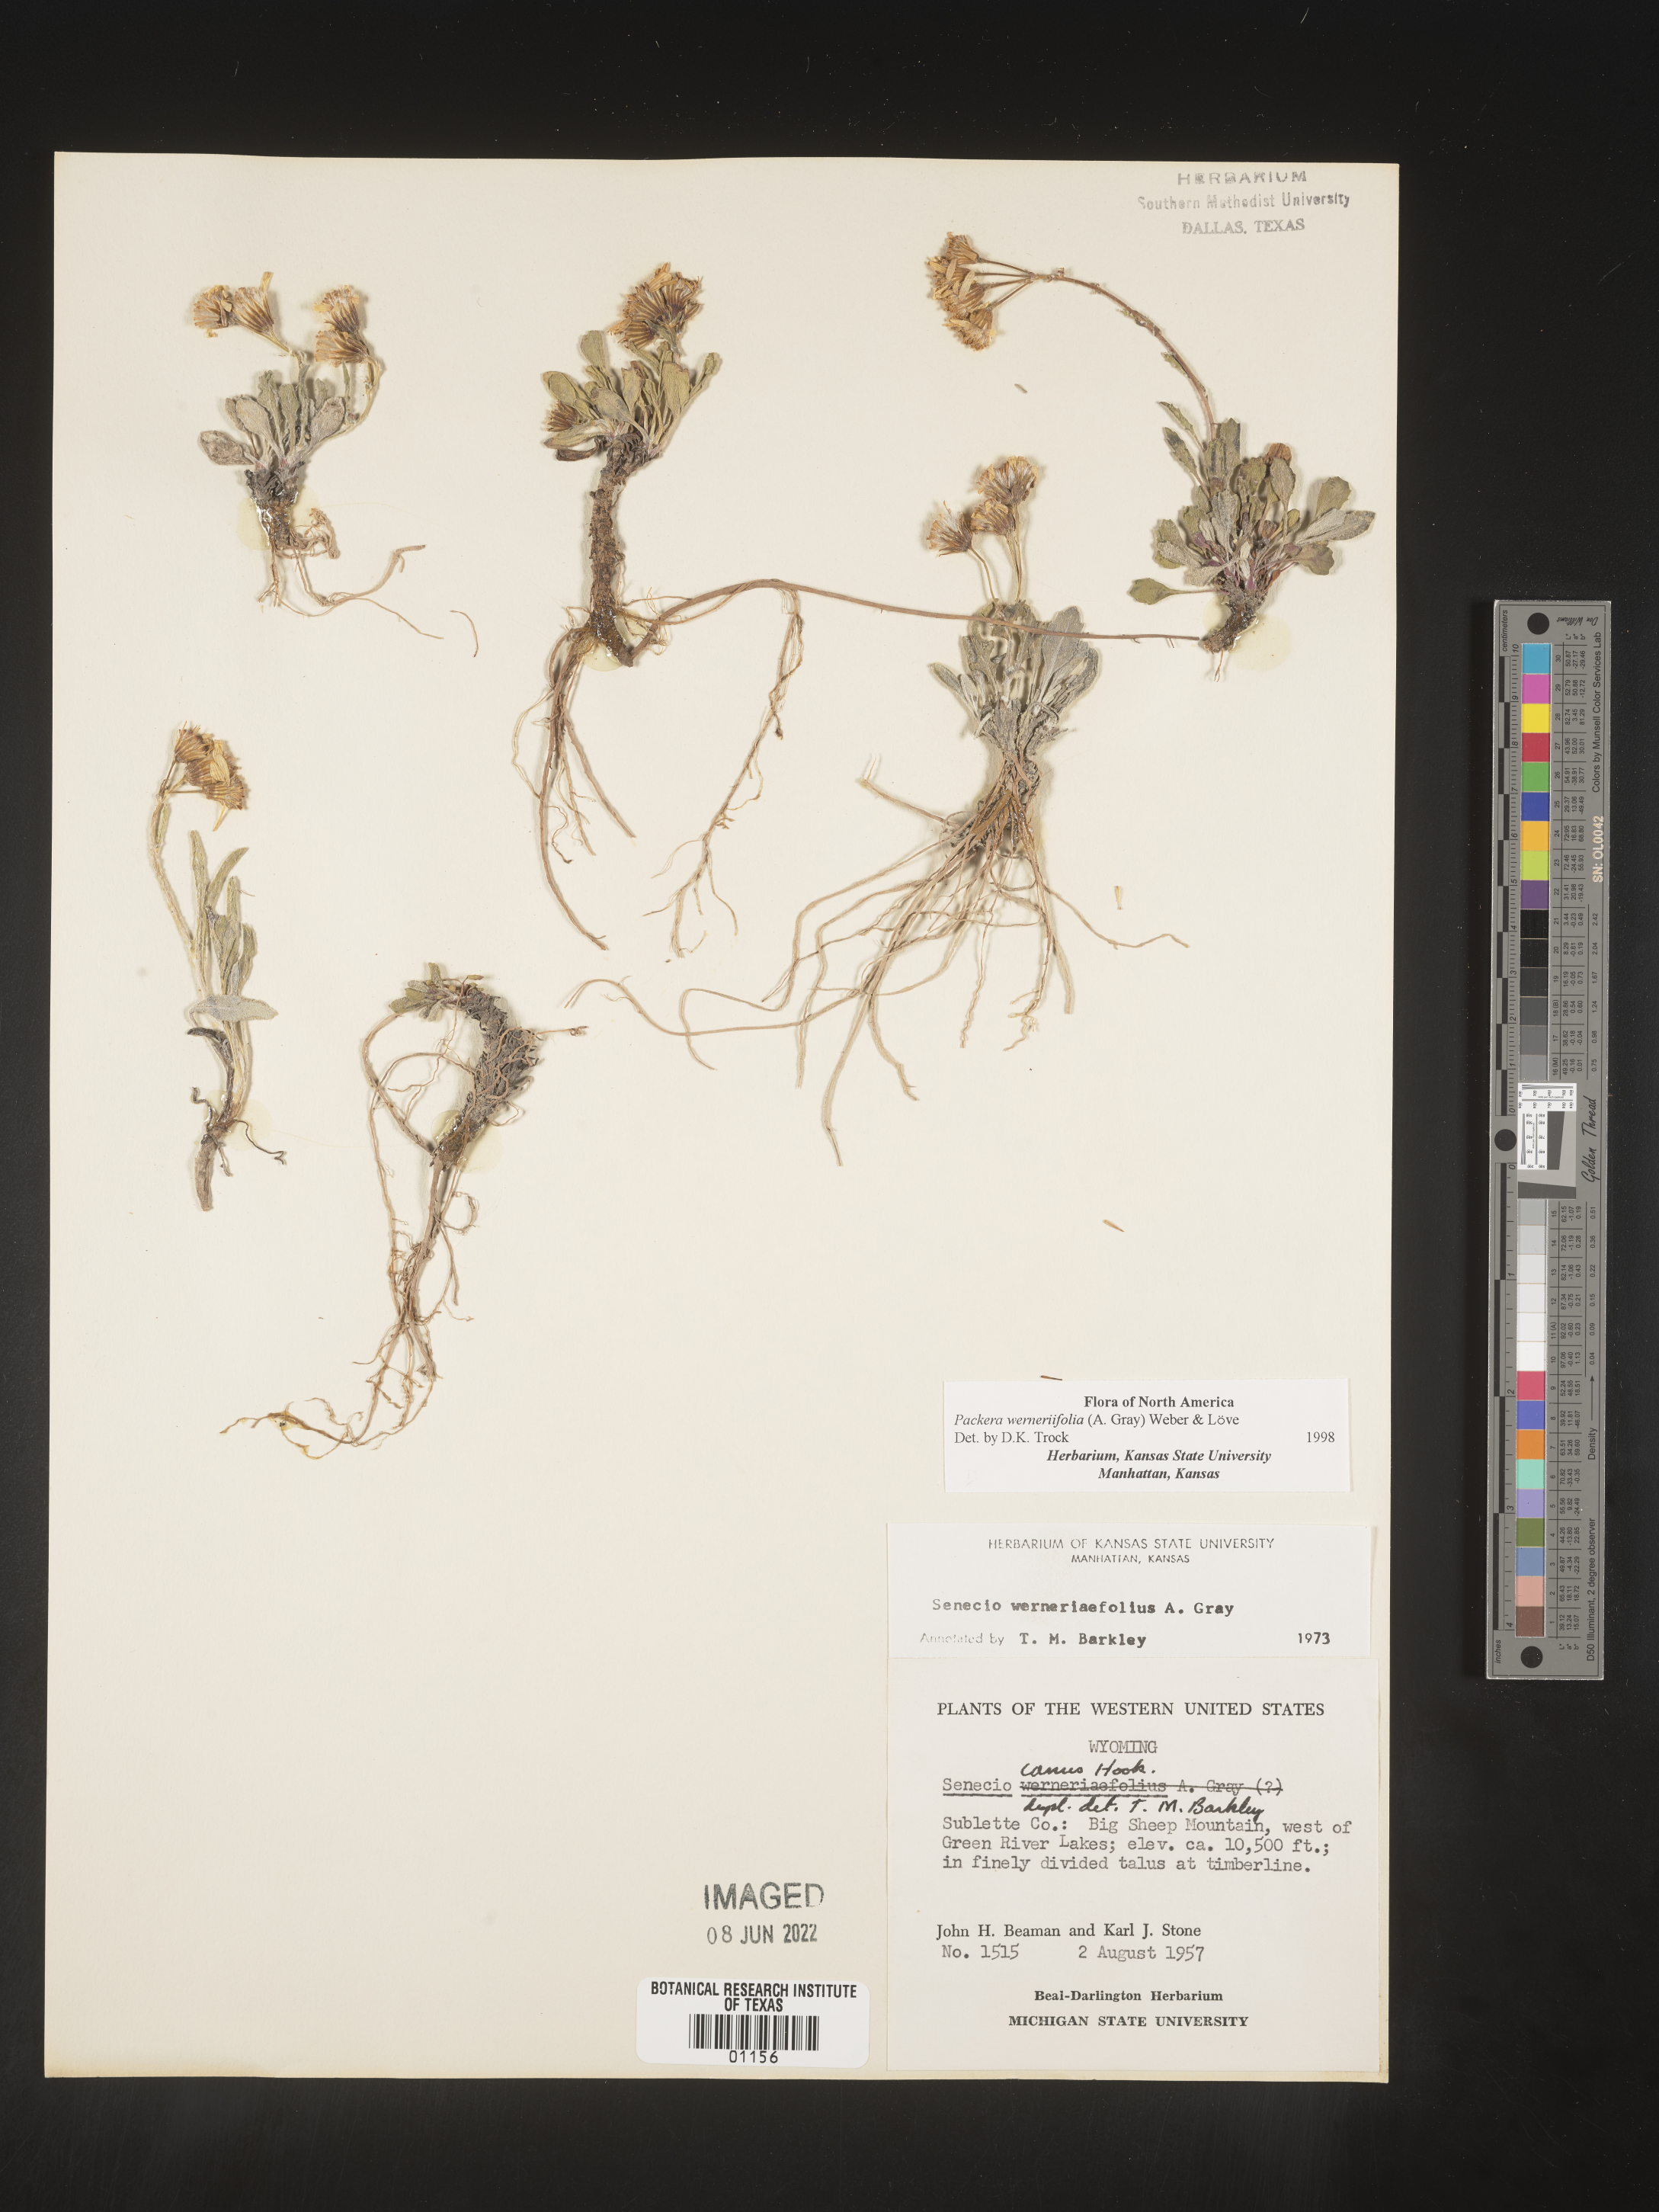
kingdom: Plantae
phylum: Tracheophyta
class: Magnoliopsida
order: Asterales
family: Asteraceae
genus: Packera
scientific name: Packera werneriifolia
